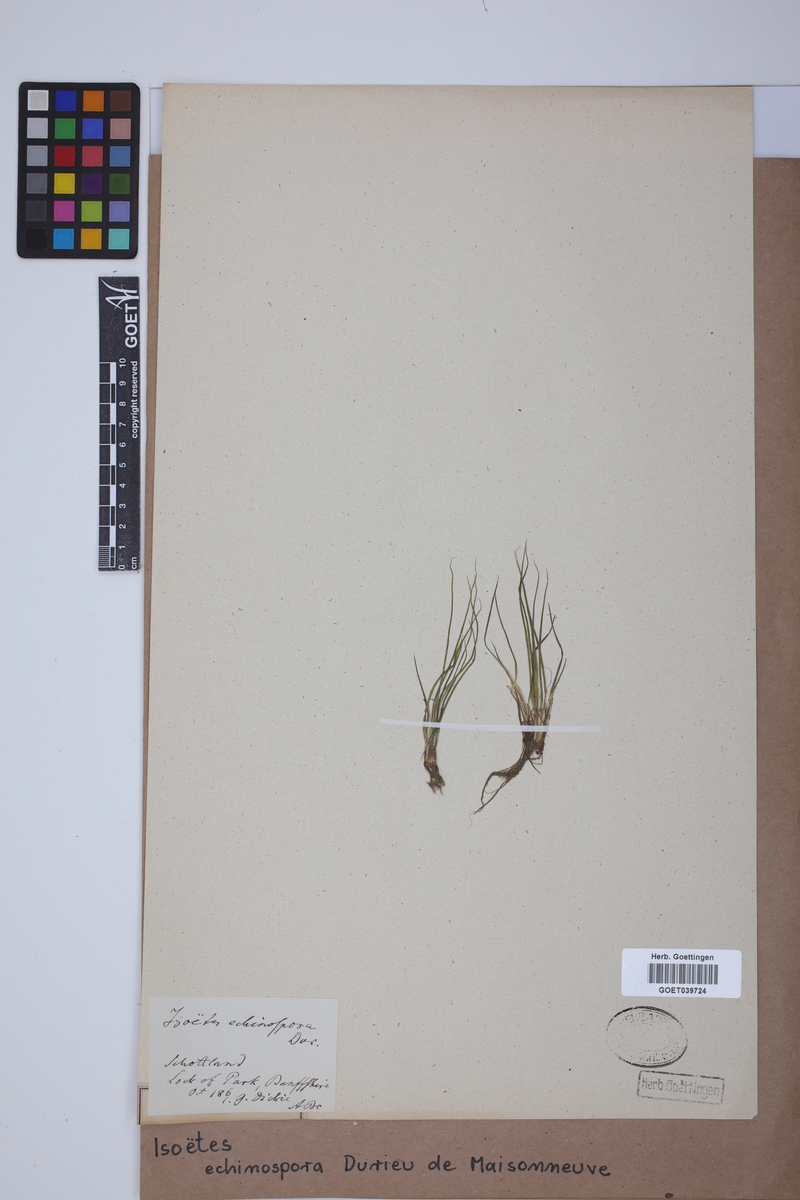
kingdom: Plantae
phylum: Tracheophyta
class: Lycopodiopsida
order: Isoetales
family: Isoetaceae
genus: Isoetes
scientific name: Isoetes echinospora
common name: Spring quillwort
